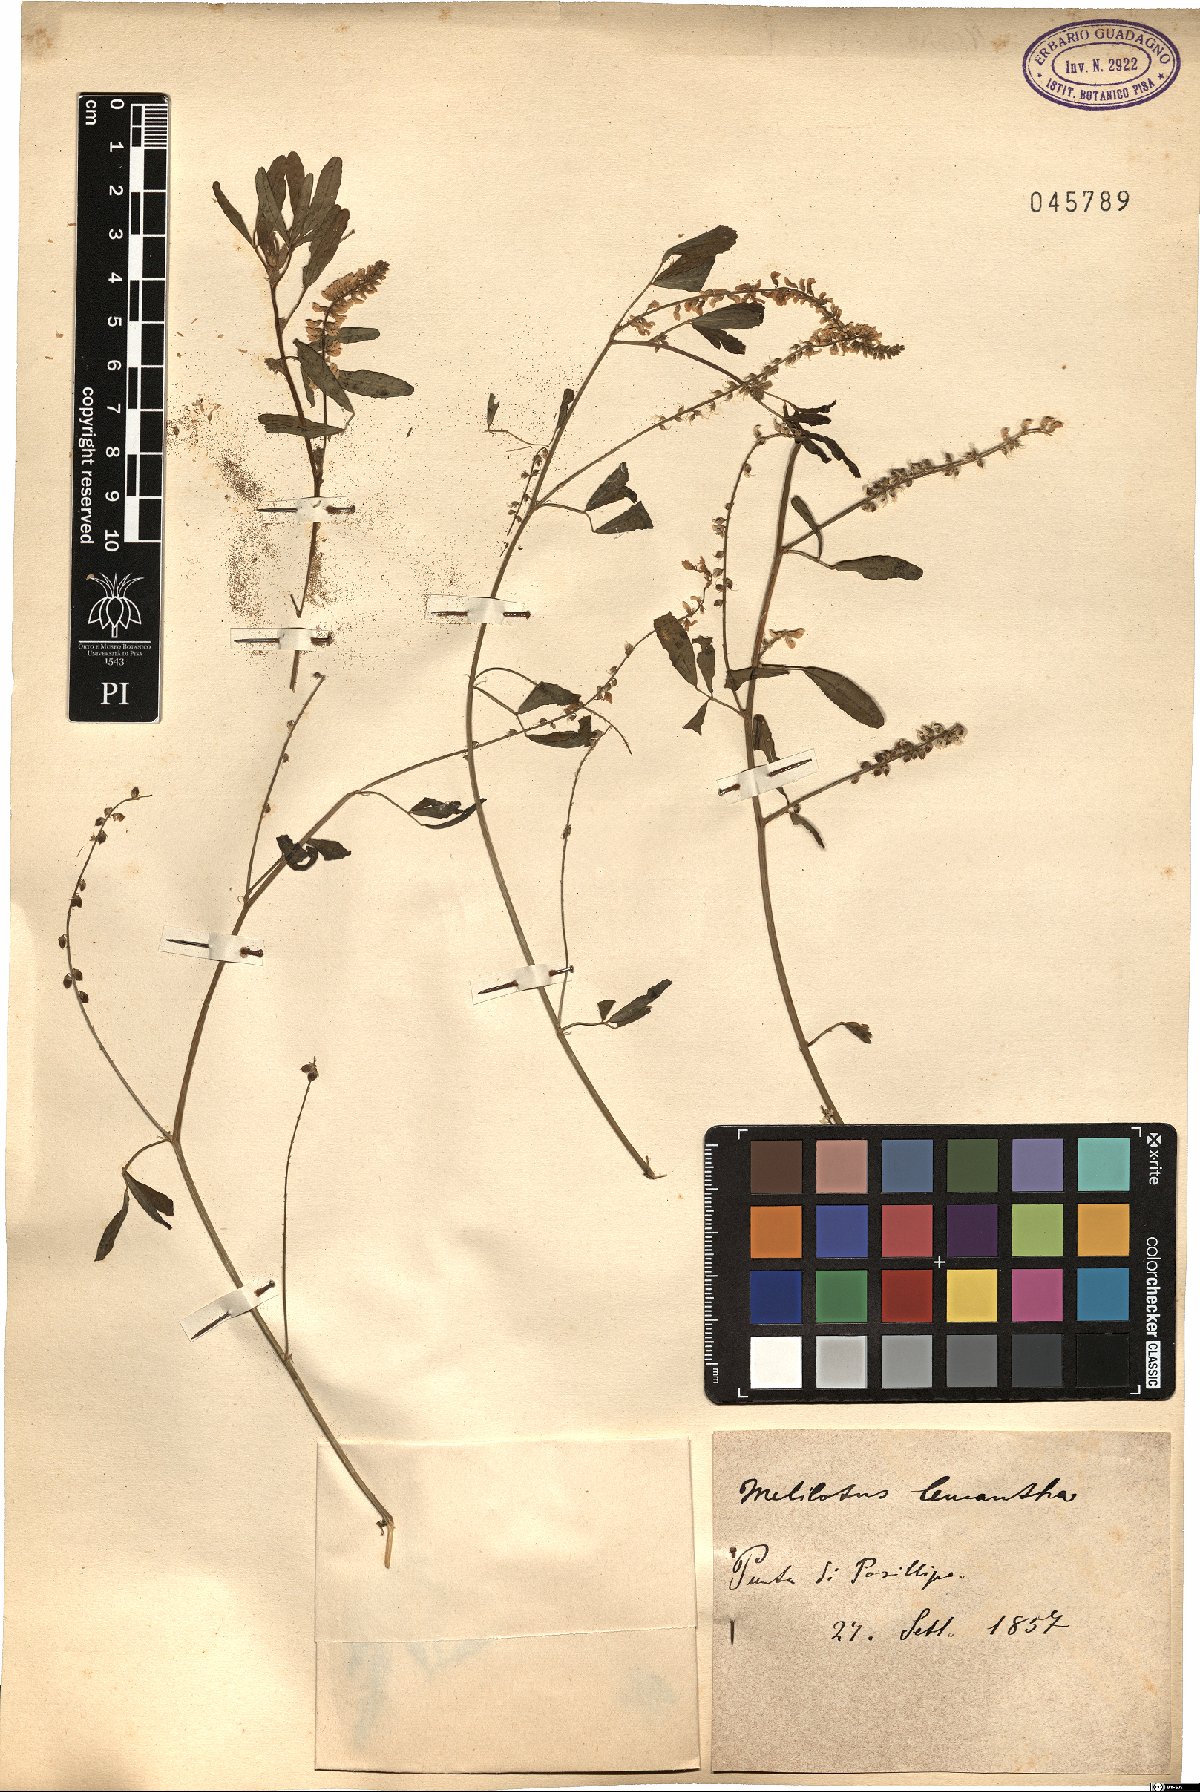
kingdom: Plantae
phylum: Tracheophyta
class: Magnoliopsida
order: Fabales
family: Fabaceae
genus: Melilotus
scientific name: Melilotus albus
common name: White melilot
